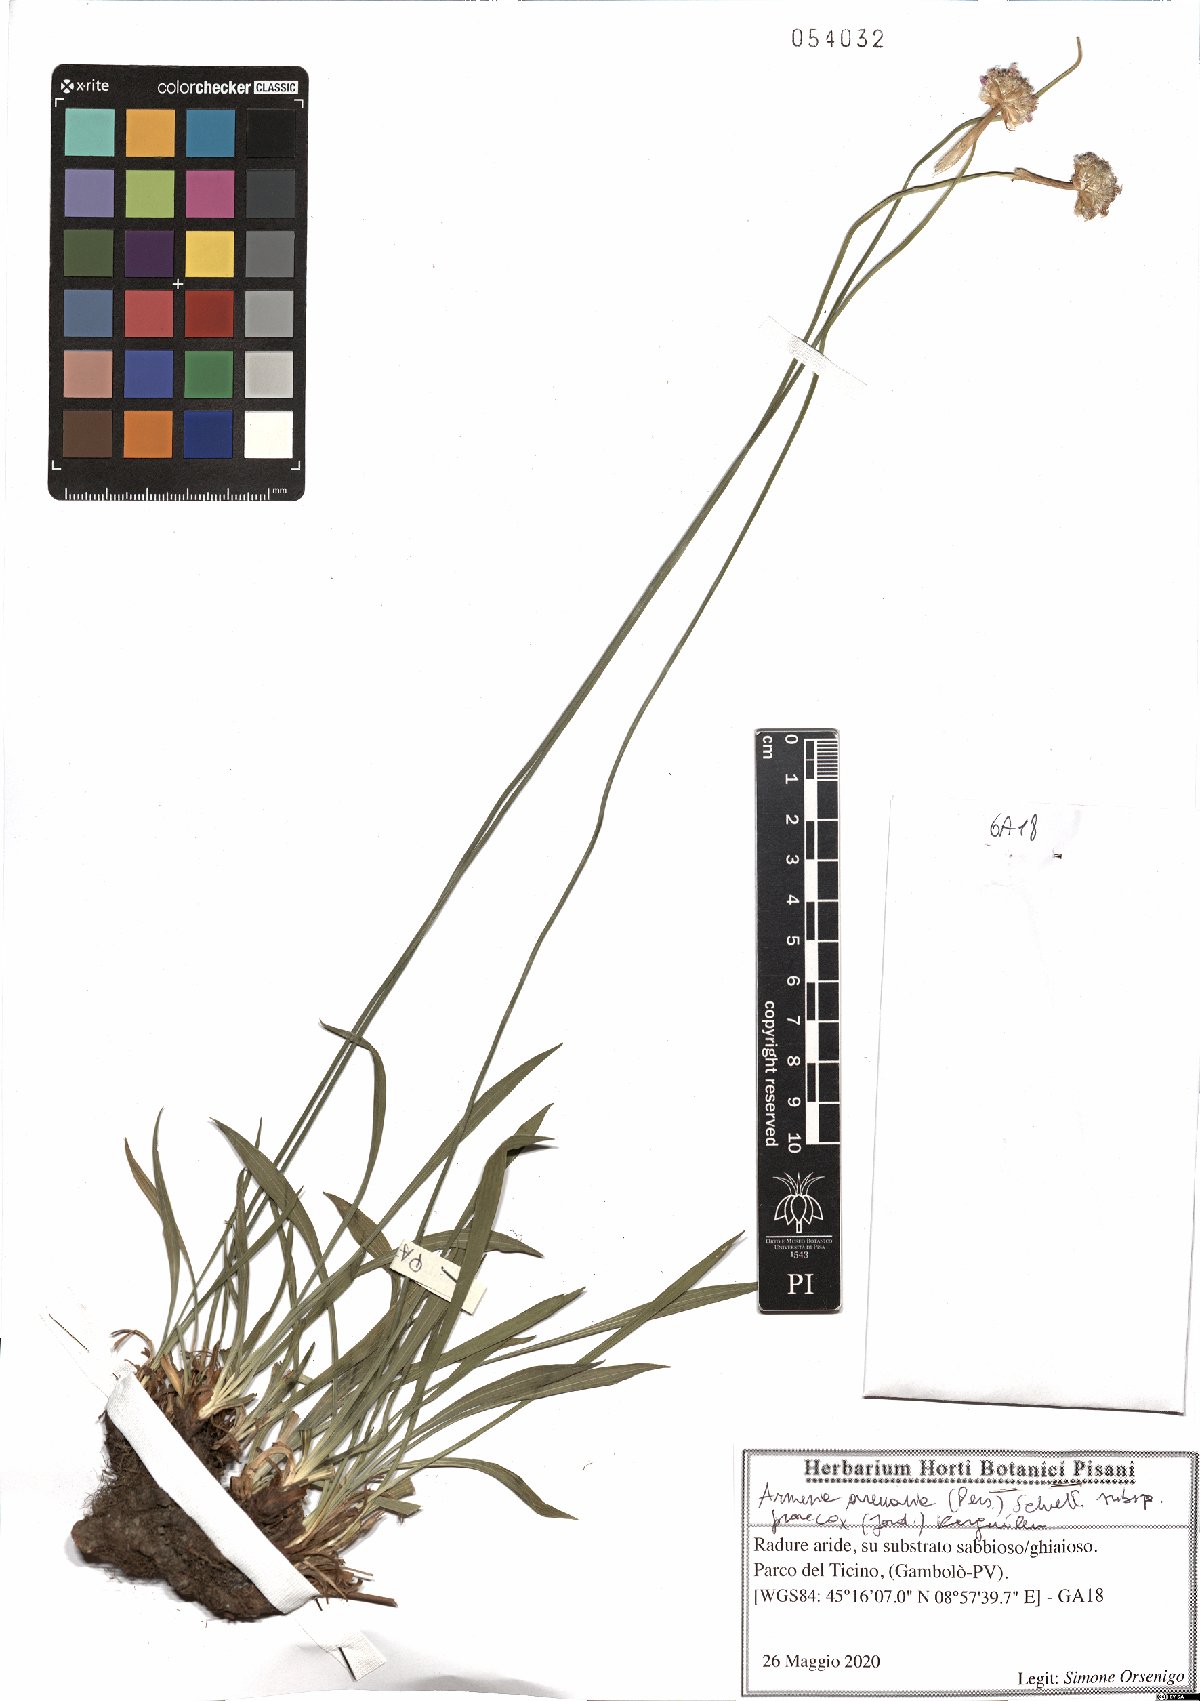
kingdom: Plantae
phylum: Tracheophyta
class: Magnoliopsida
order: Caryophyllales
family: Plumbaginaceae
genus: Armeria
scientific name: Armeria arenaria
